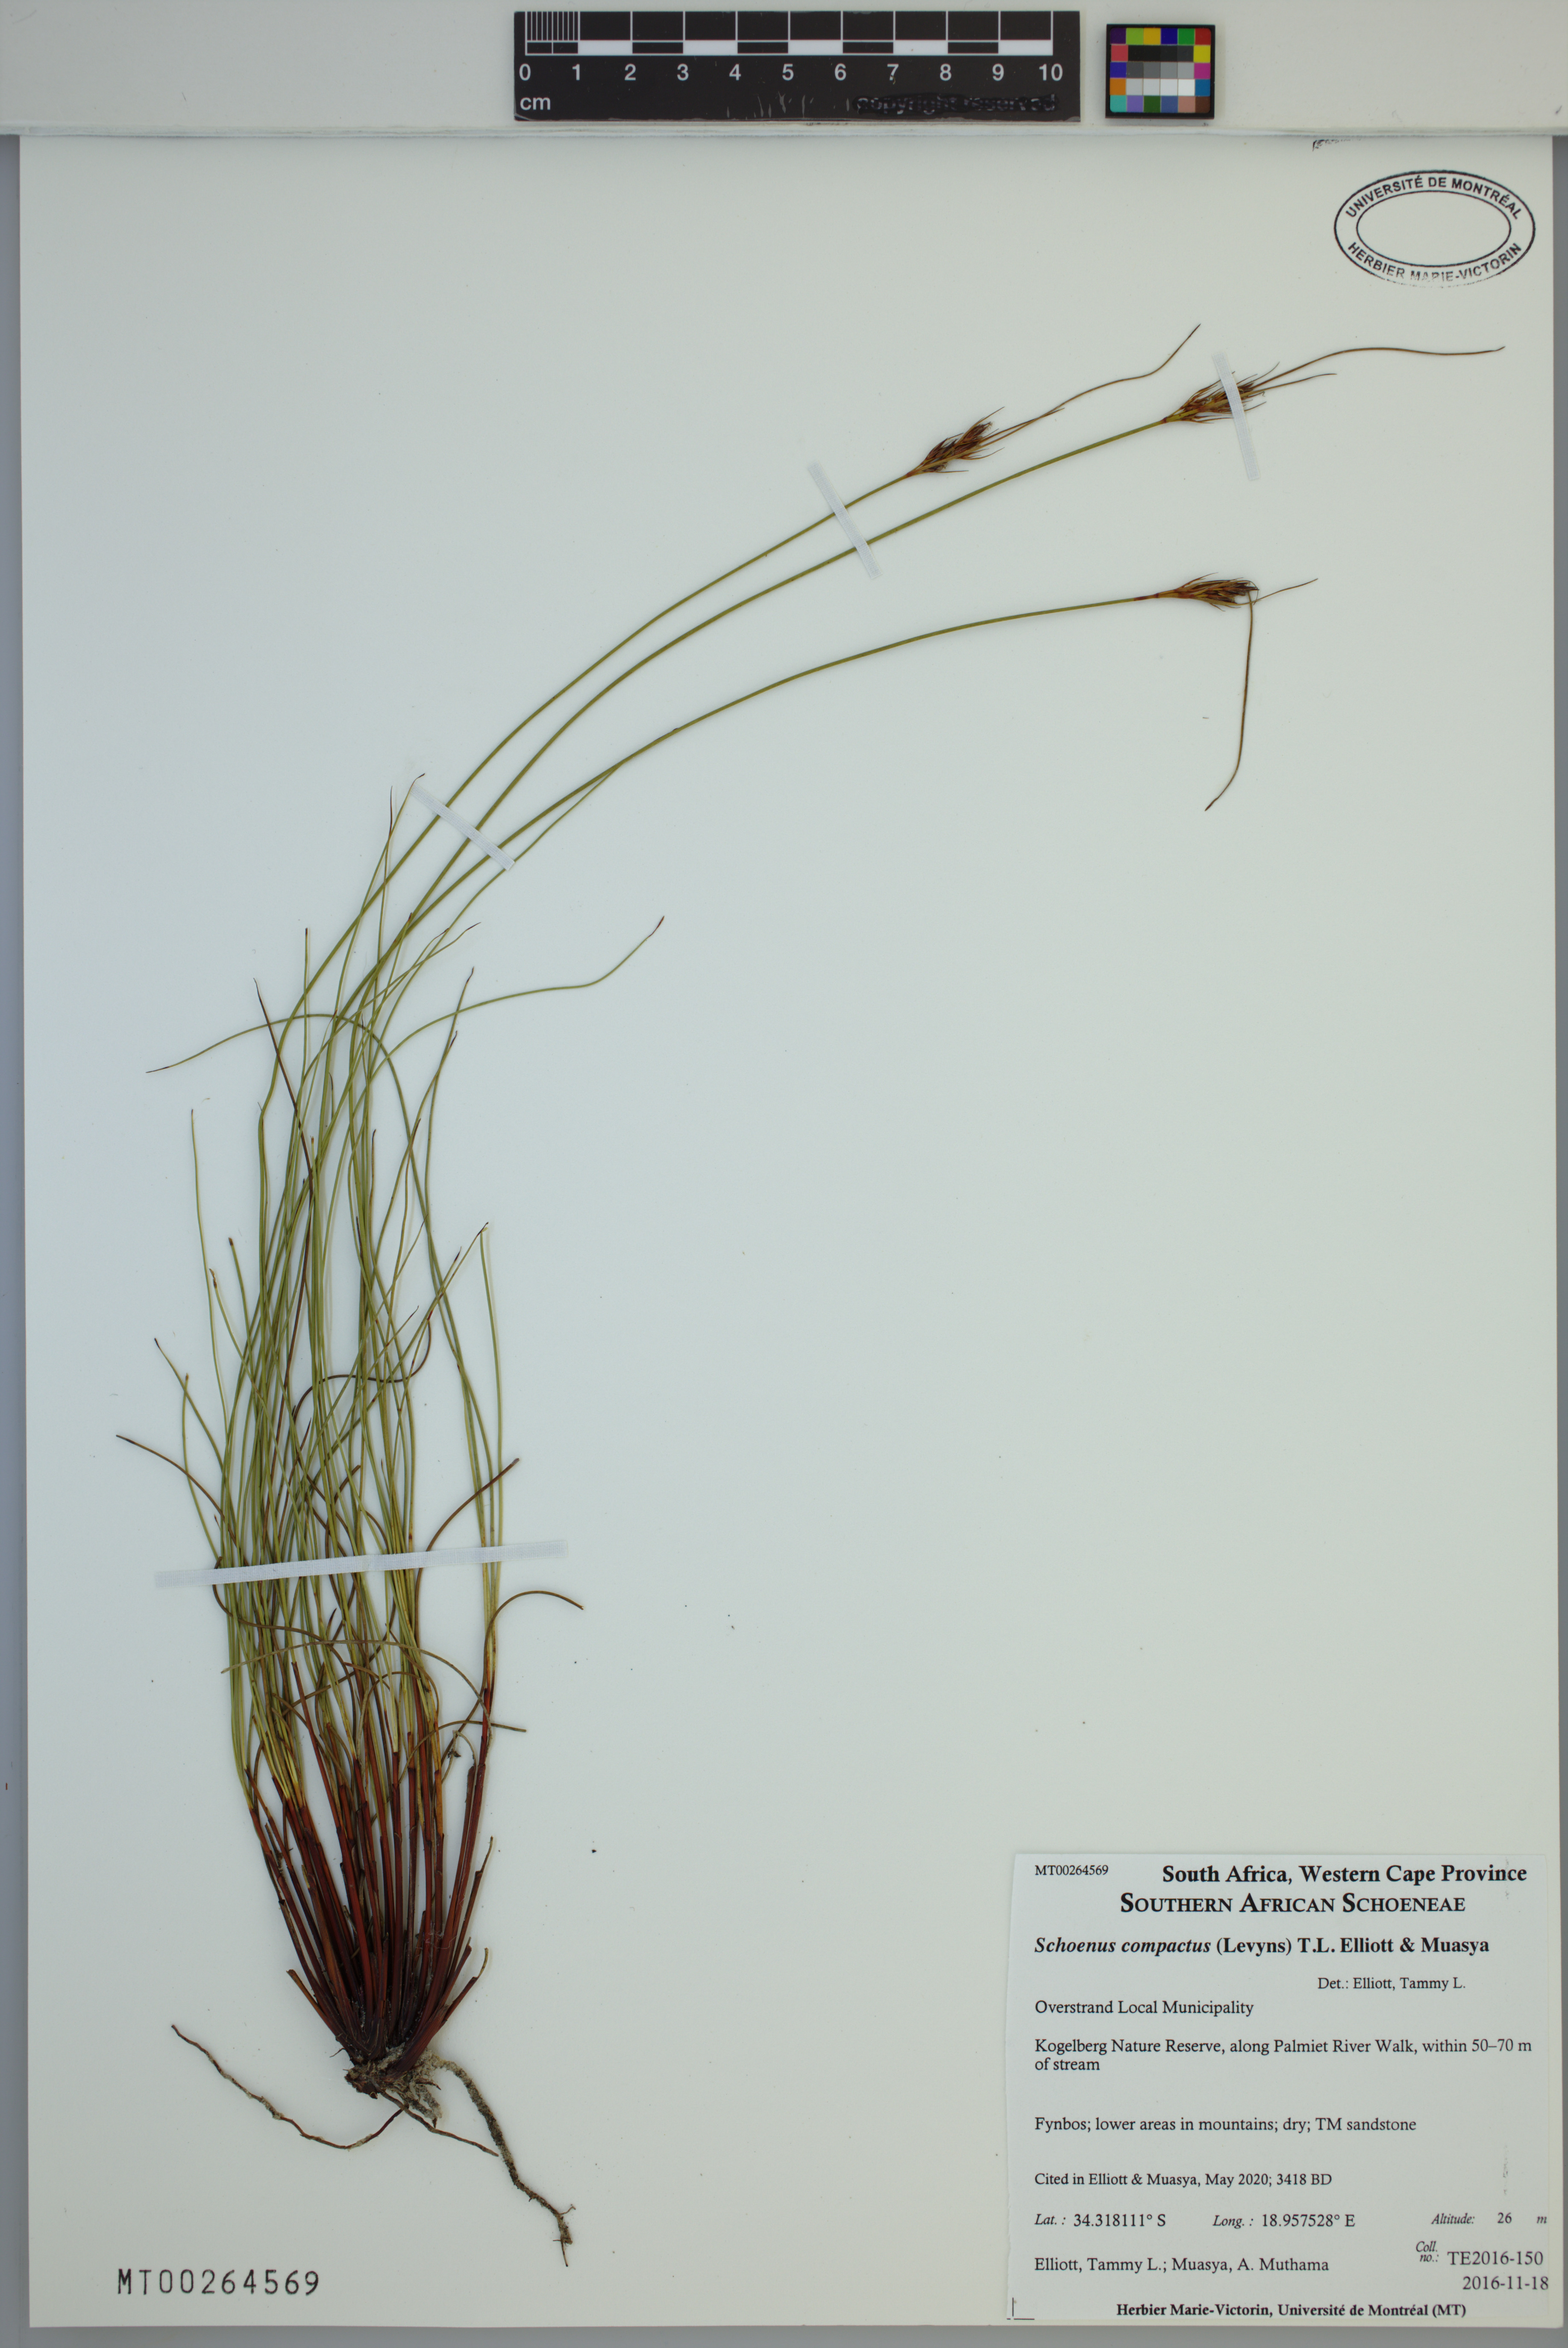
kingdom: Plantae
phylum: Tracheophyta
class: Liliopsida
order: Poales
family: Cyperaceae
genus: Schoenus
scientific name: Schoenus compactus
